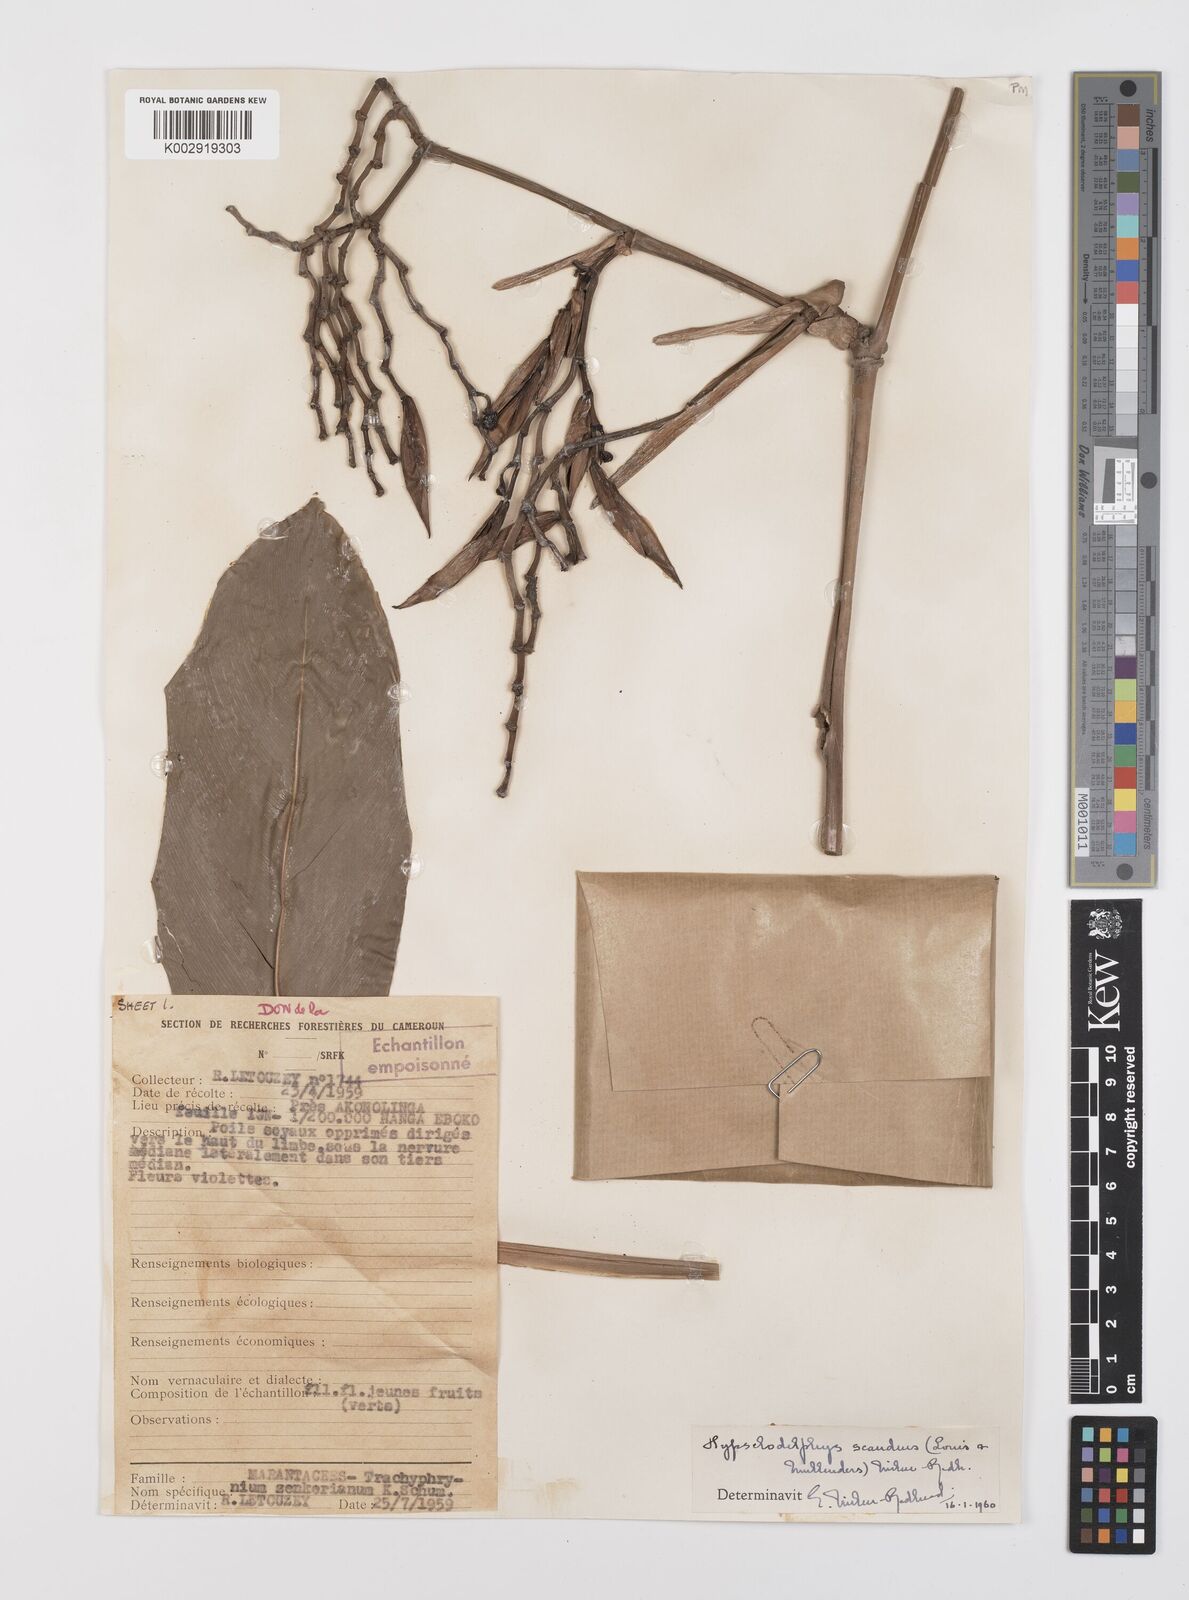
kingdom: Plantae
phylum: Tracheophyta
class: Liliopsida
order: Zingiberales
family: Marantaceae
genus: Hypselodelphys
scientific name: Hypselodelphys scandens
